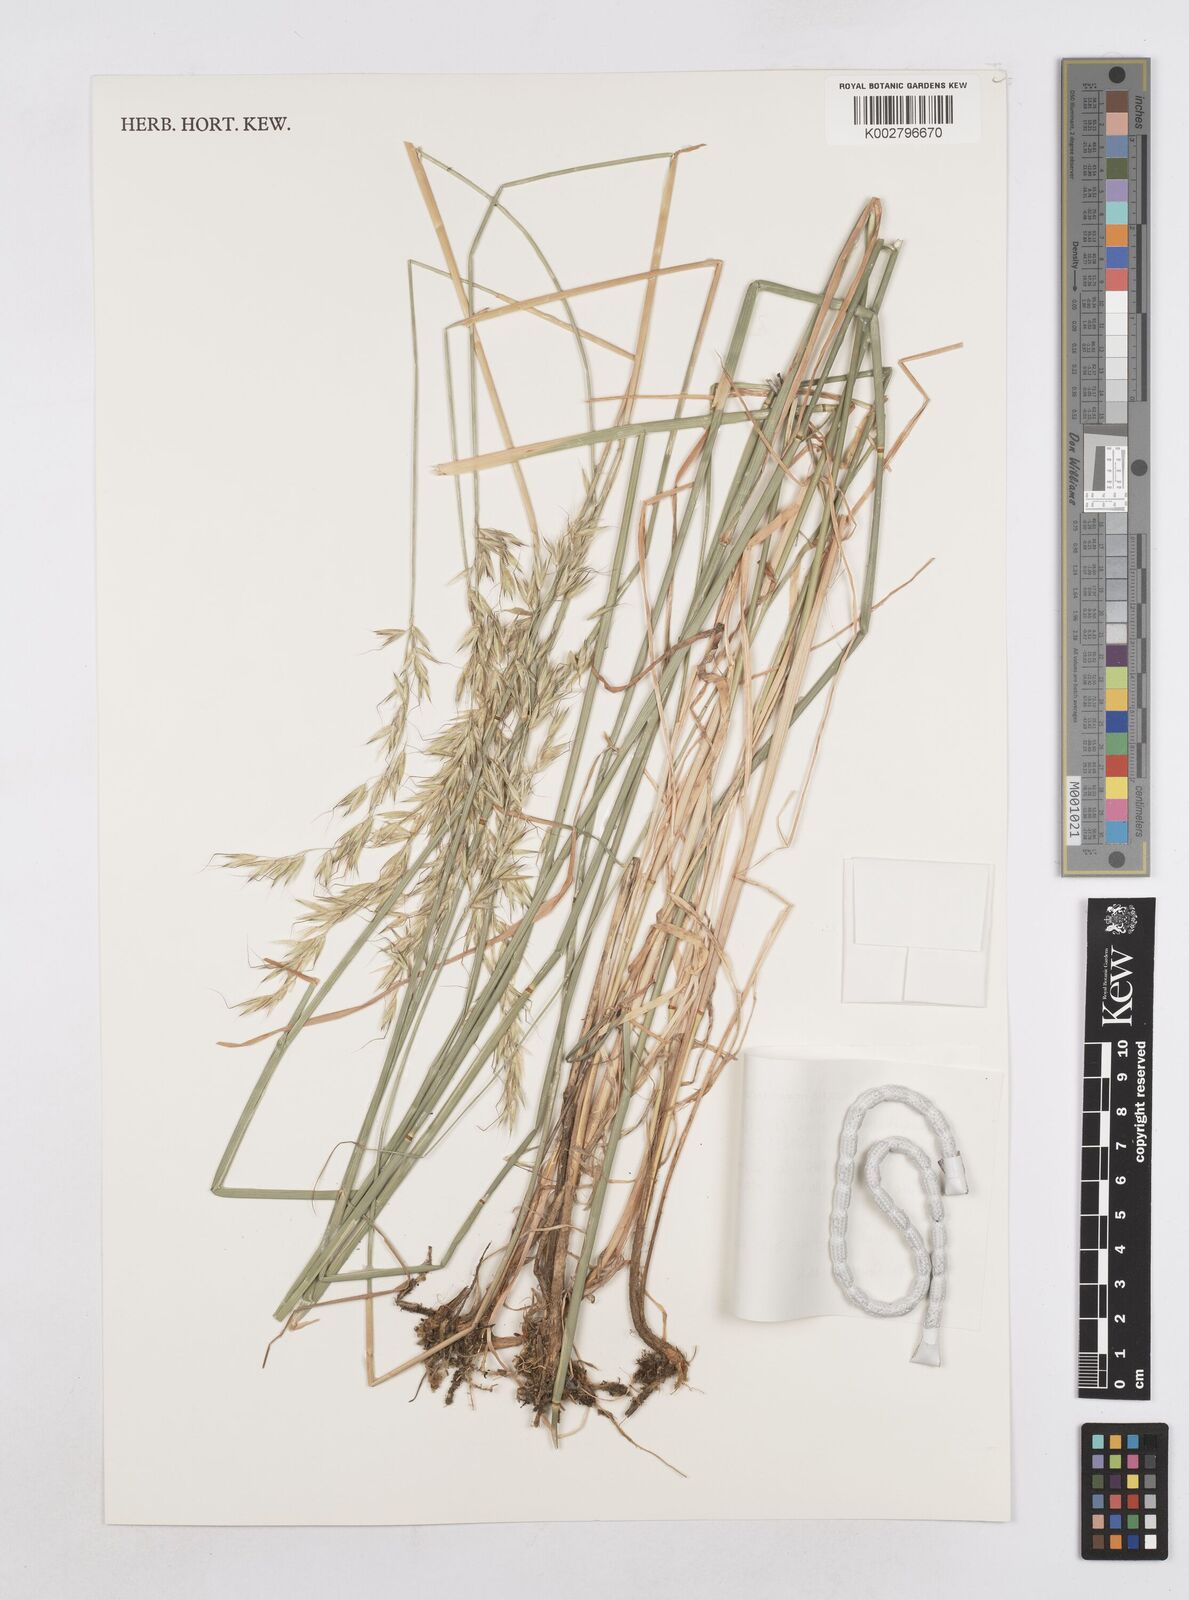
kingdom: Plantae
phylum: Tracheophyta
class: Liliopsida
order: Poales
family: Poaceae
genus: Arrhenatherum
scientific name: Arrhenatherum elatius
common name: Tall oatgrass
